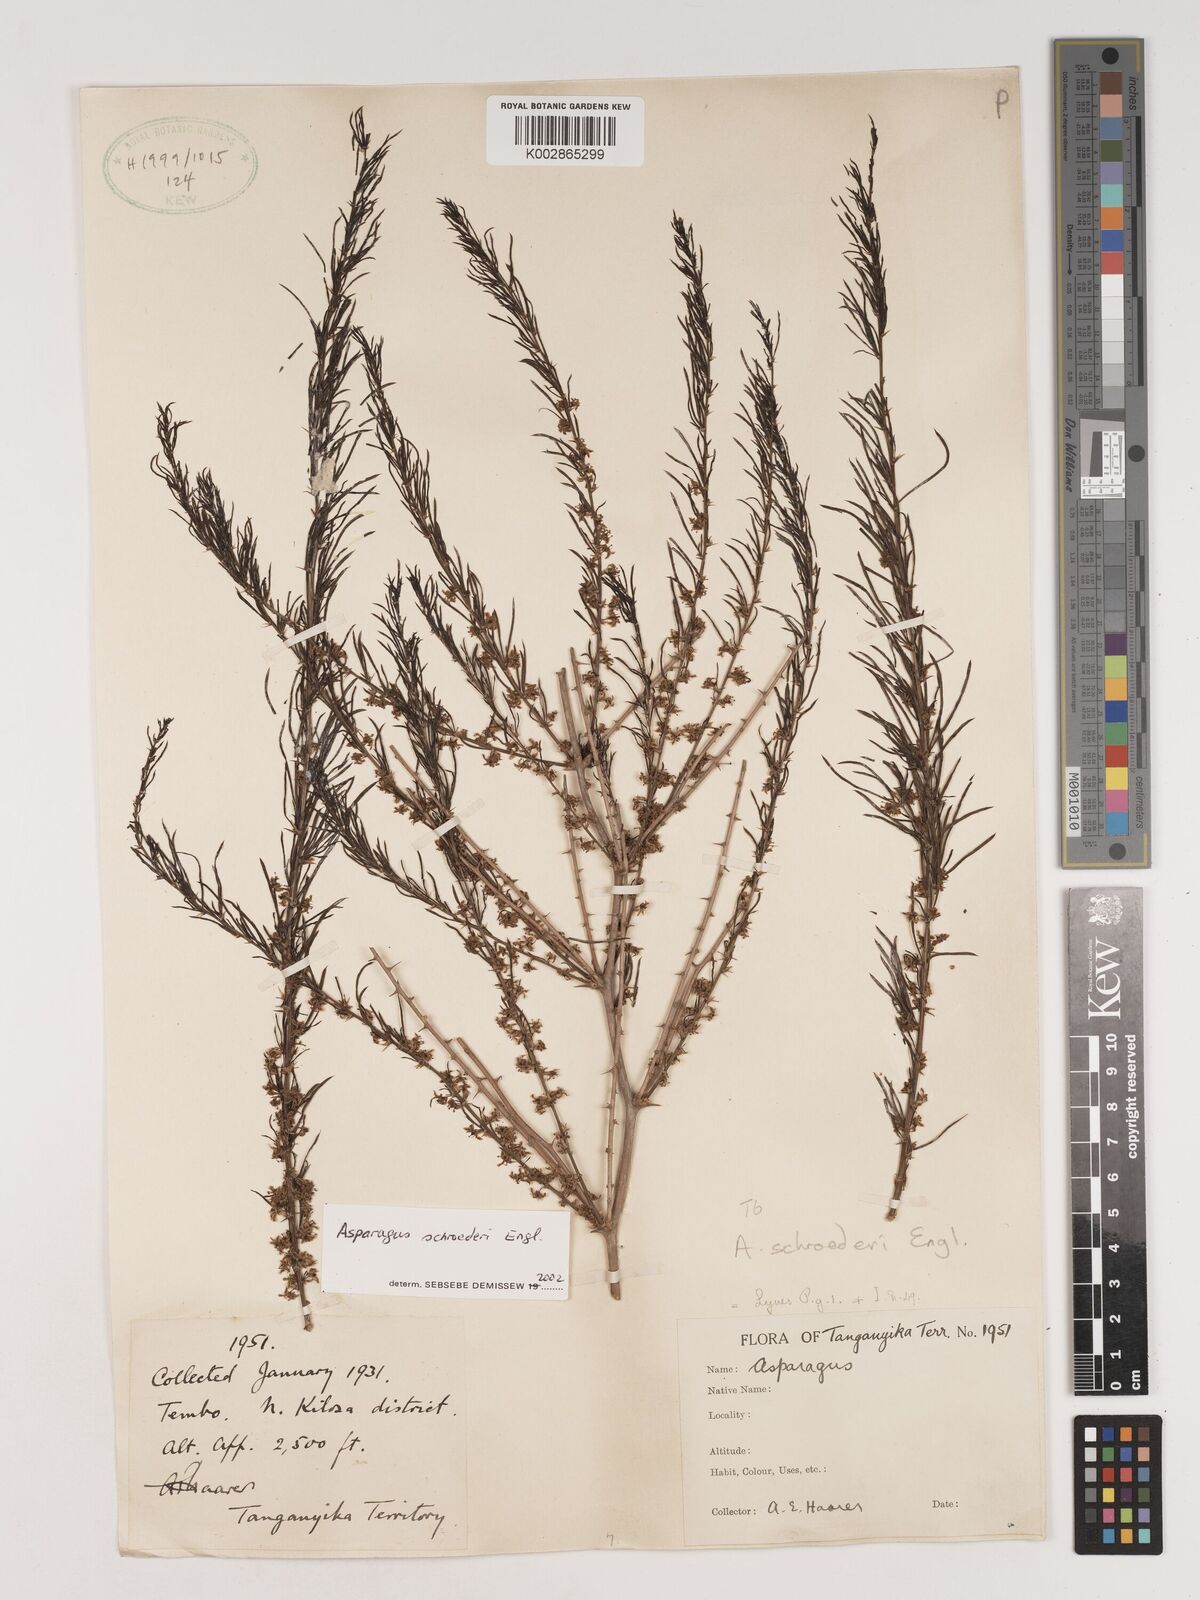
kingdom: Plantae
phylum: Tracheophyta
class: Liliopsida
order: Asparagales
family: Asparagaceae
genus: Asparagus
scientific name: Asparagus schroederi
